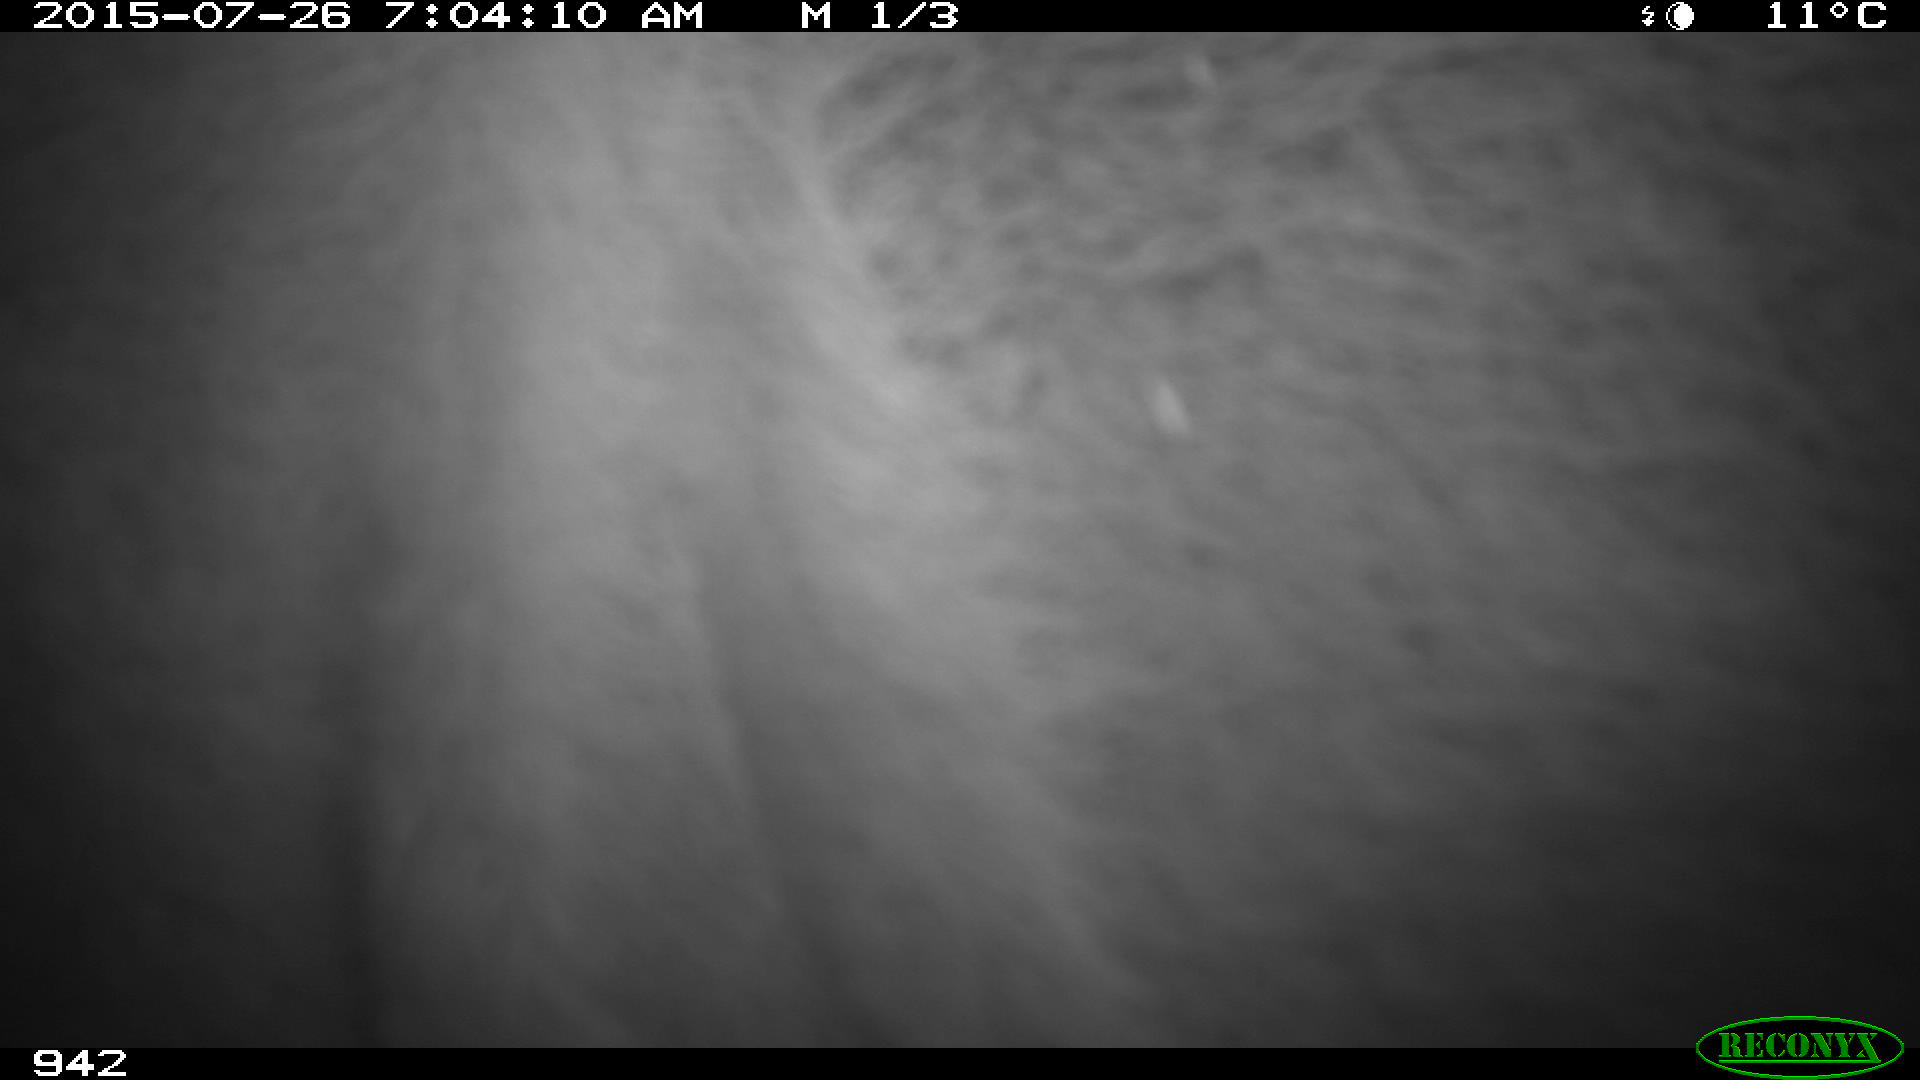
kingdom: Animalia
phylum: Chordata
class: Mammalia
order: Artiodactyla
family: Bovidae
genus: Bos
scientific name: Bos taurus
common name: Domesticated cattle
